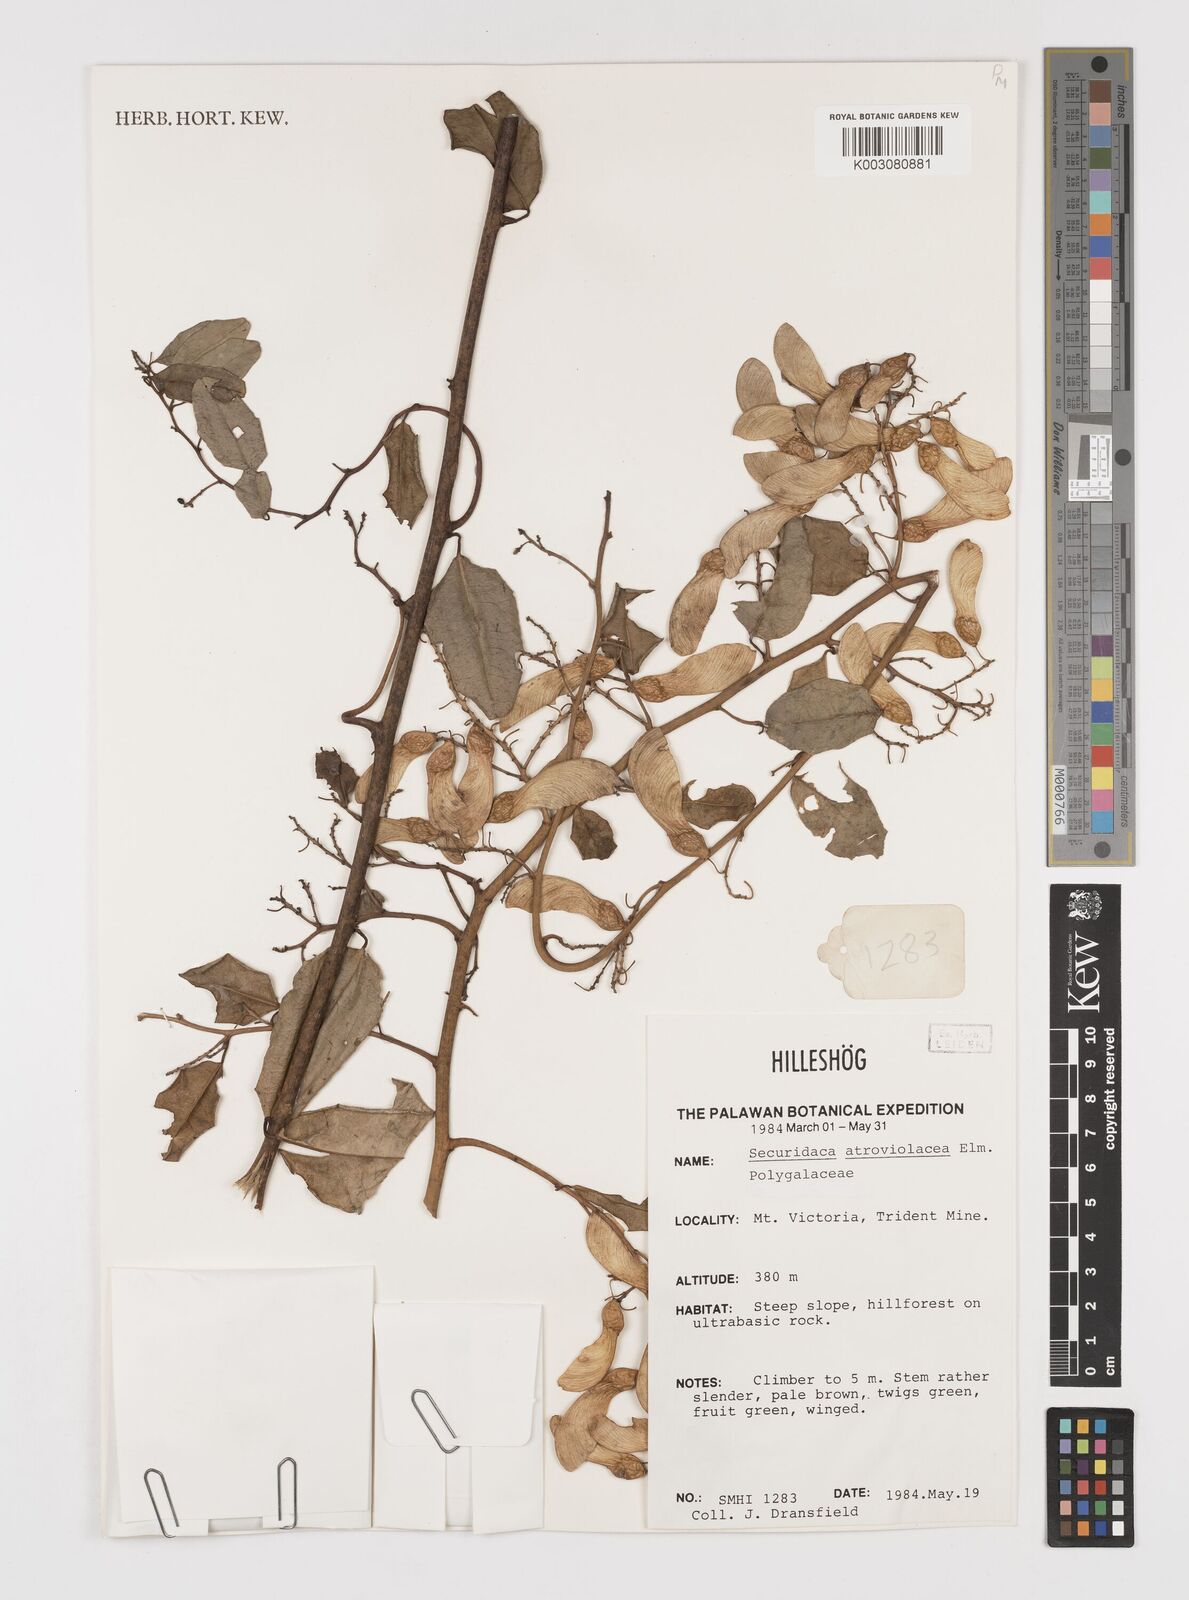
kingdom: Plantae
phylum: Tracheophyta
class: Magnoliopsida
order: Fabales
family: Polygalaceae
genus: Securidaca
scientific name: Securidaca atroviolacea
